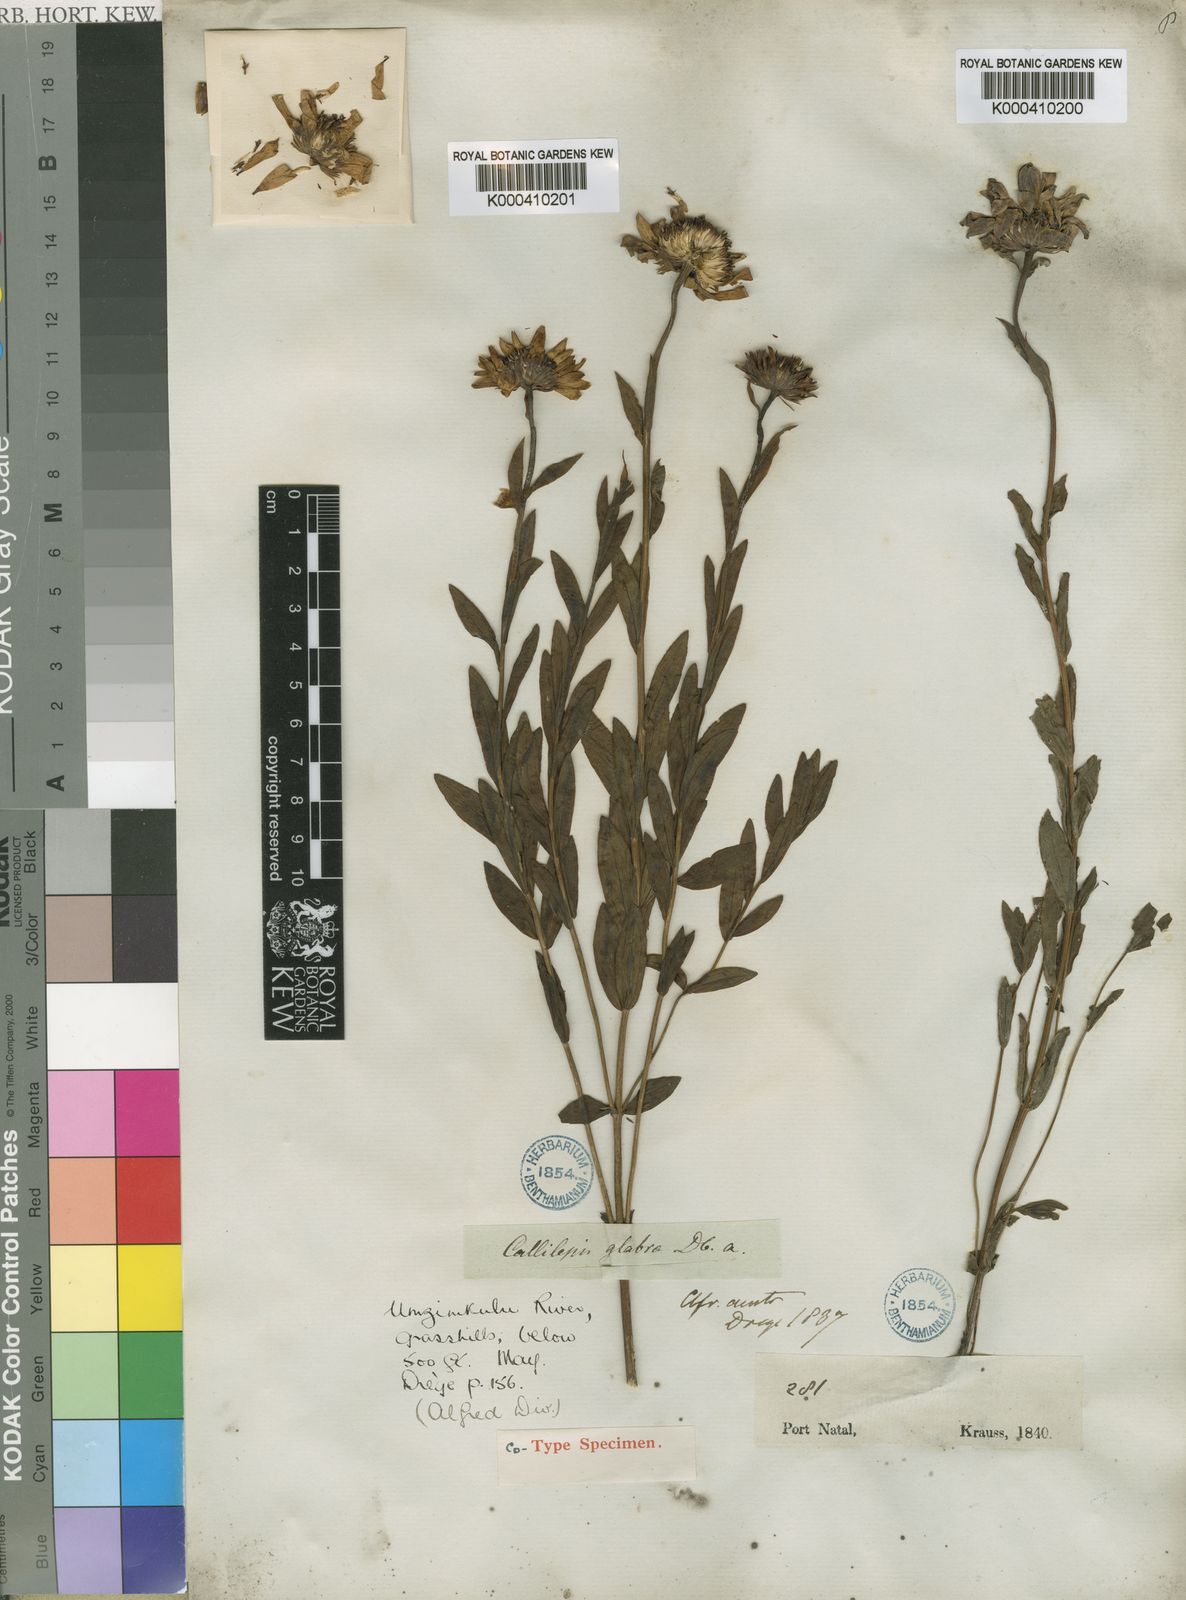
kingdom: Plantae
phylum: Tracheophyta
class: Magnoliopsida
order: Asterales
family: Asteraceae
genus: Callilepis
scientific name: Callilepis laureola
